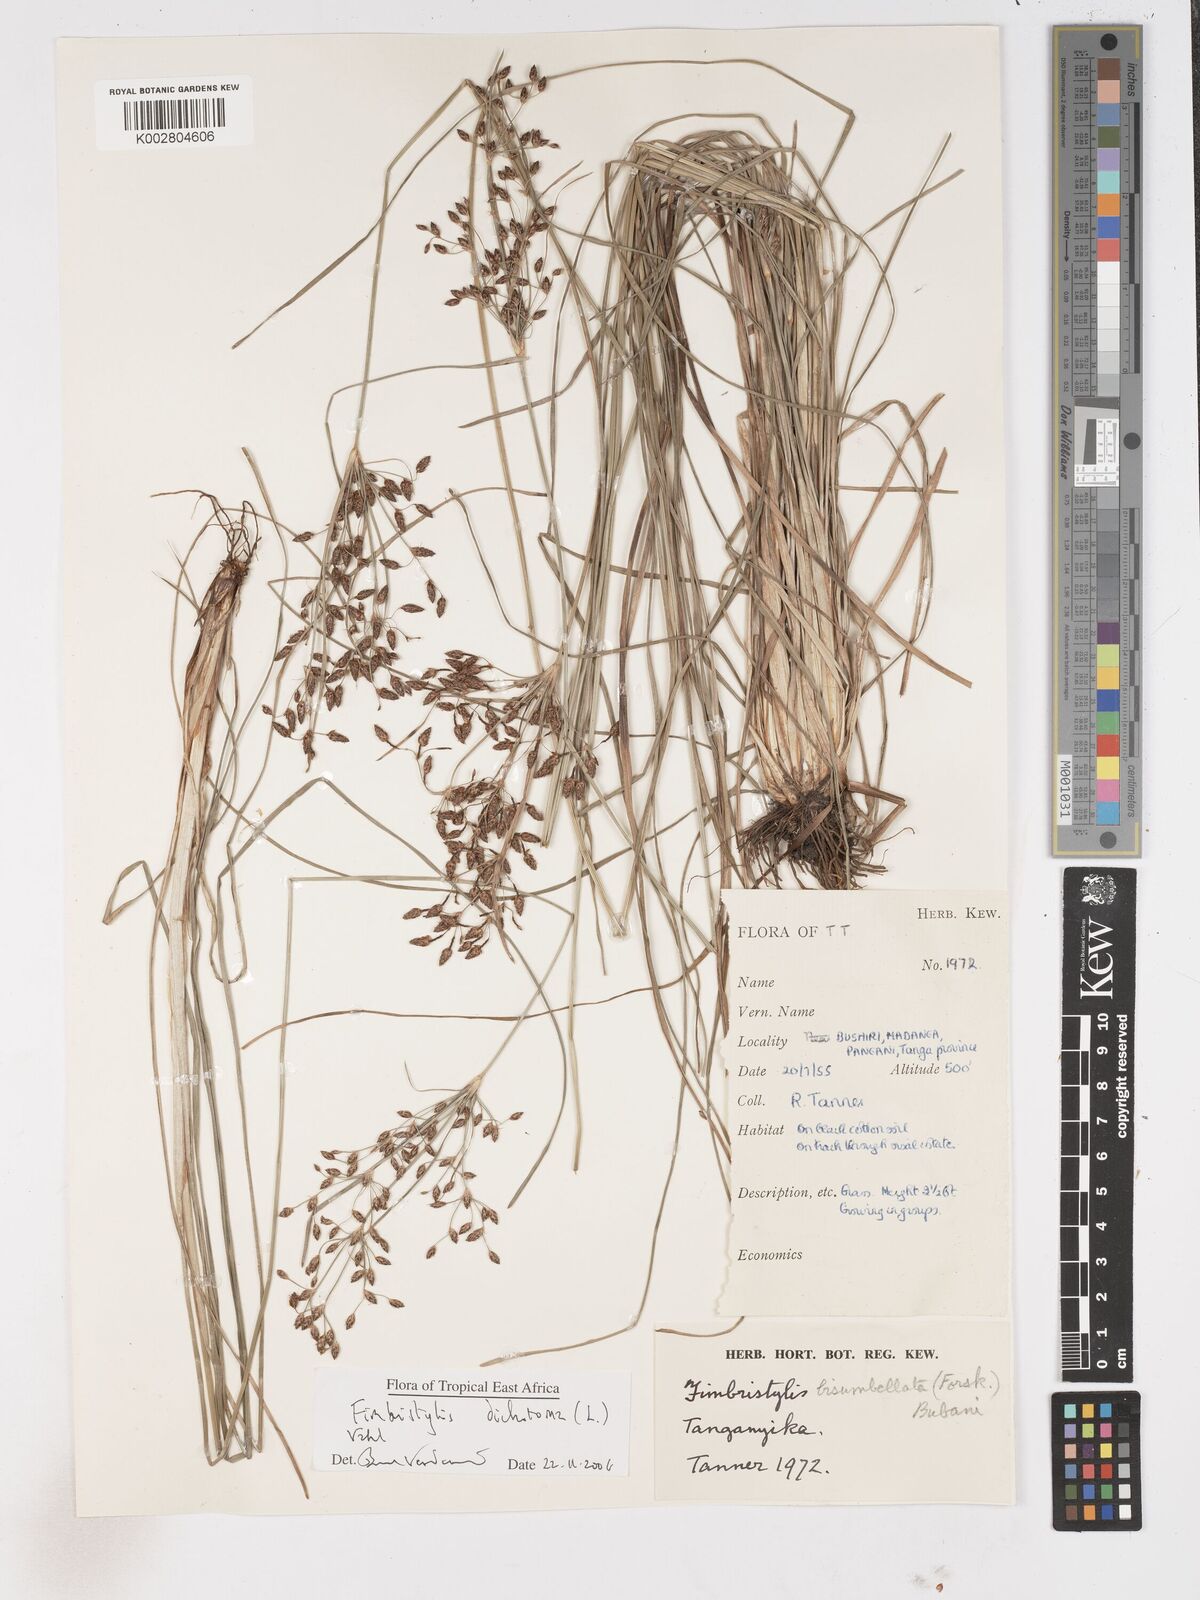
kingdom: Plantae
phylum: Tracheophyta
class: Liliopsida
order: Poales
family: Cyperaceae
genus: Fimbristylis
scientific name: Fimbristylis dichotoma
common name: Forked fimbry
